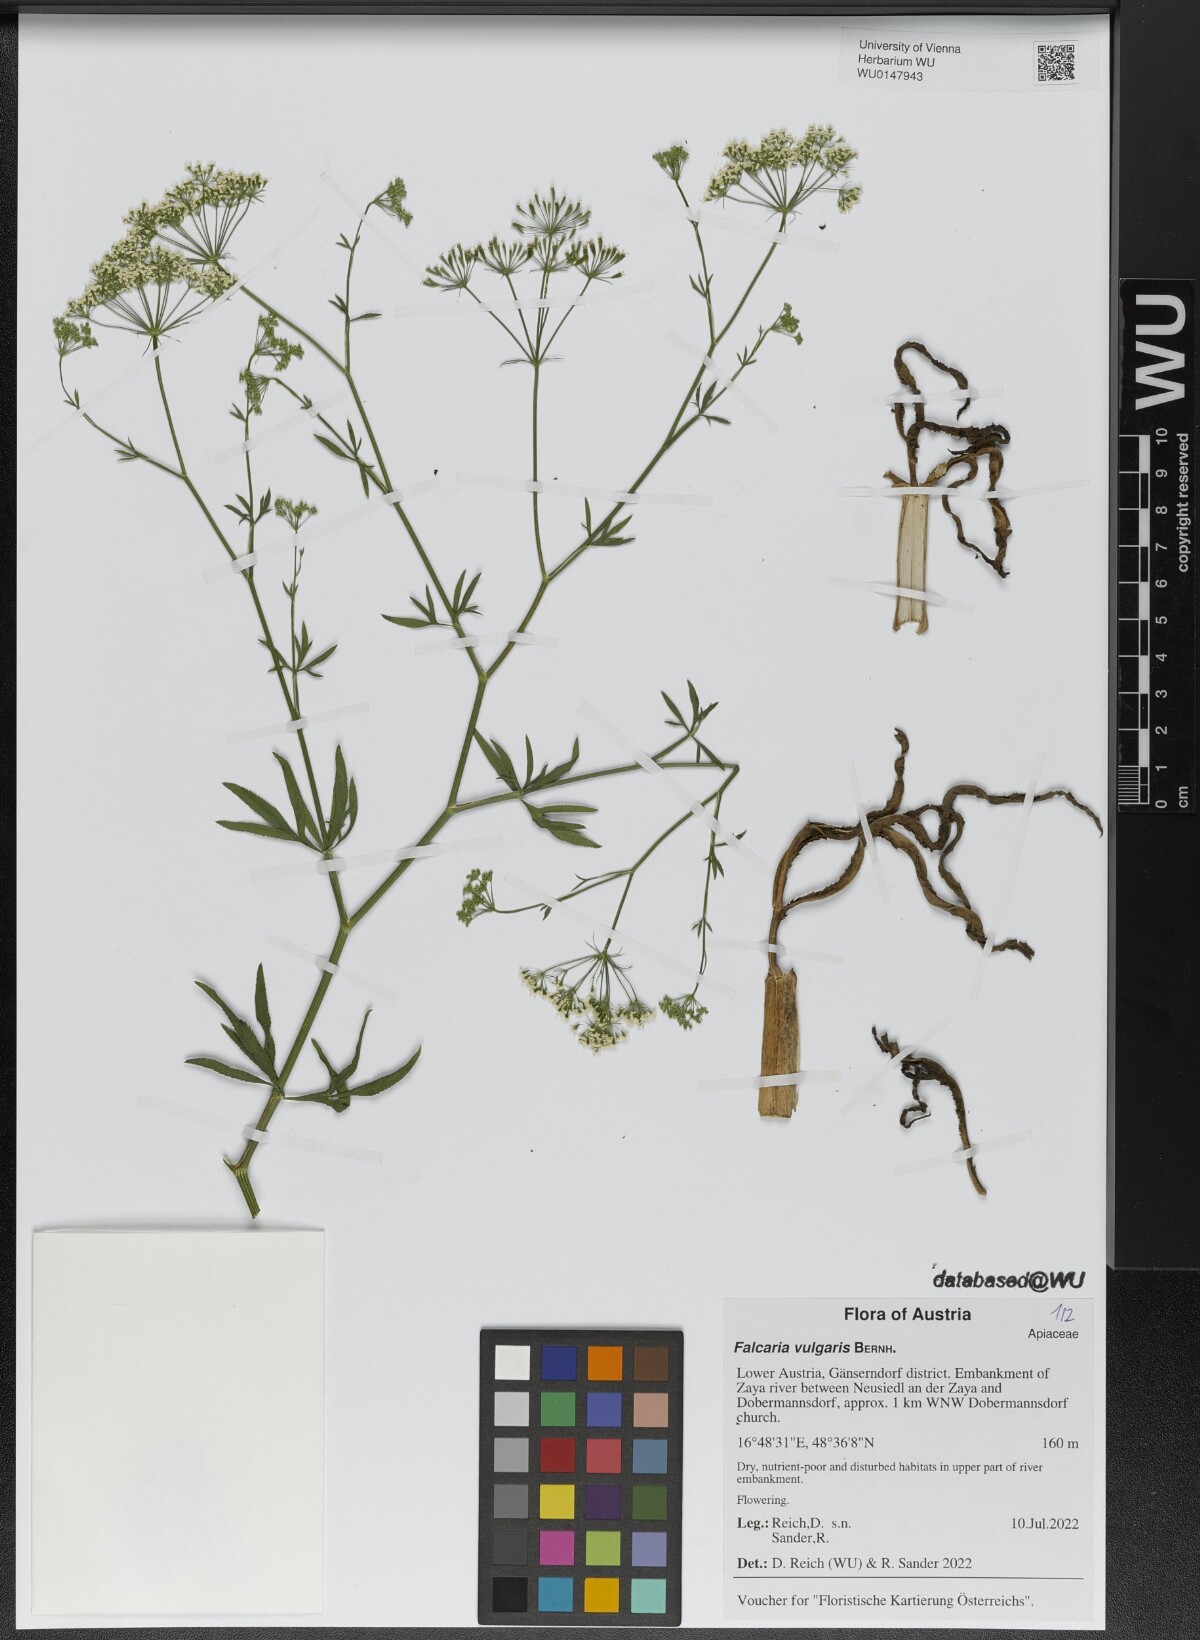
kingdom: Plantae
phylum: Tracheophyta
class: Magnoliopsida
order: Apiales
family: Apiaceae
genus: Falcaria
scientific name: Falcaria vulgaris
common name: Longleaf
